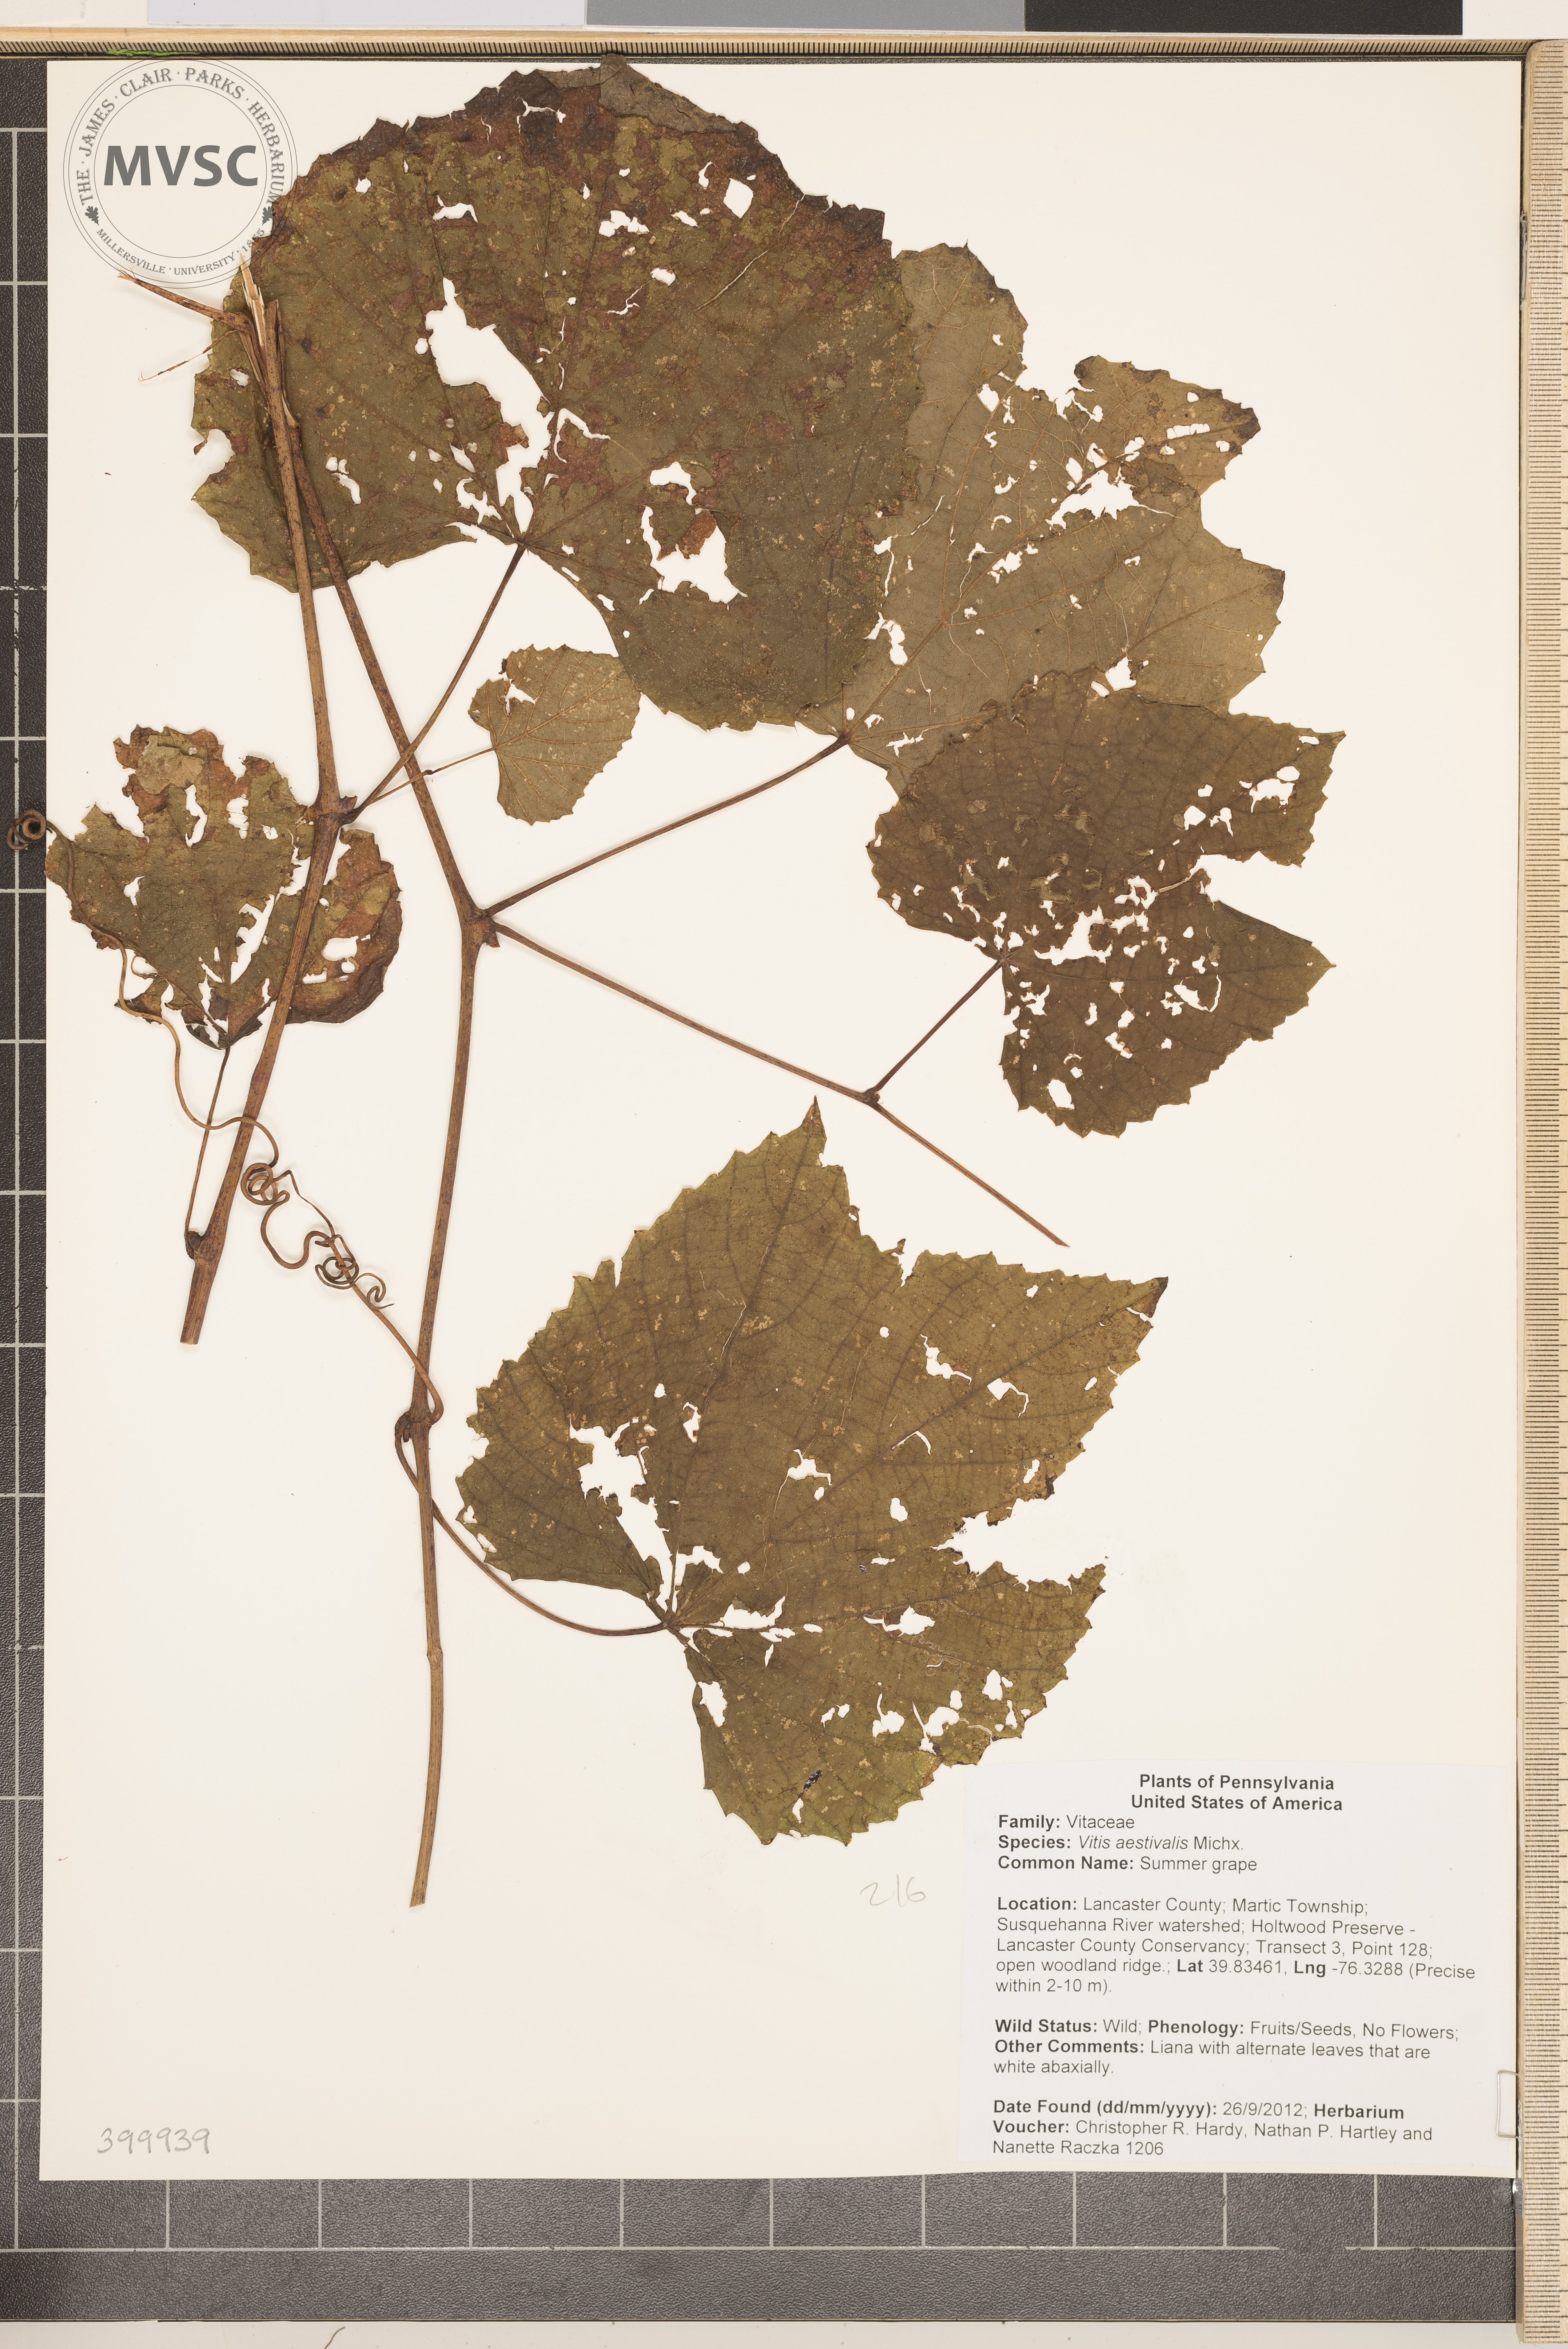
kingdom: Plantae
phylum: Tracheophyta
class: Magnoliopsida
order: Vitales
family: Vitaceae
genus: Vitis
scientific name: Vitis aestivalis
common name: Summer grape
